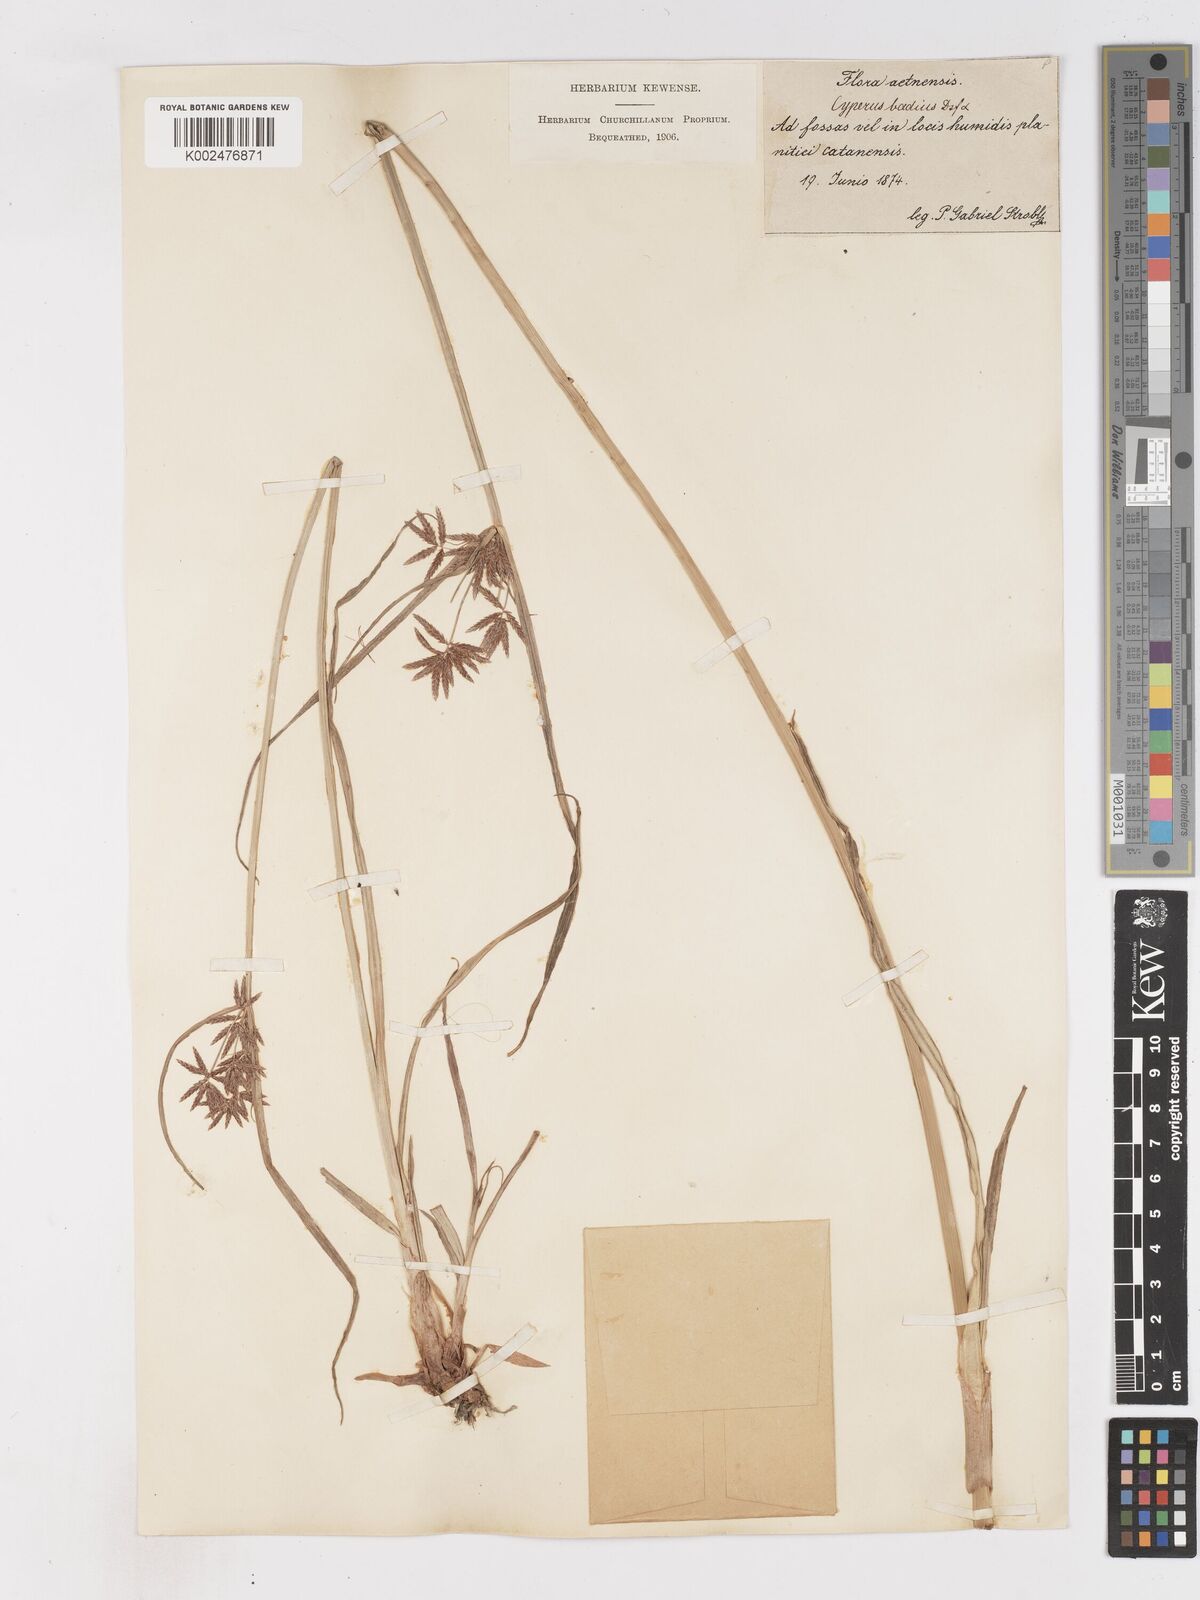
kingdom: Plantae
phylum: Tracheophyta
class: Liliopsida
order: Poales
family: Cyperaceae
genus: Cyperus
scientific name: Cyperus longus
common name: Galingale
